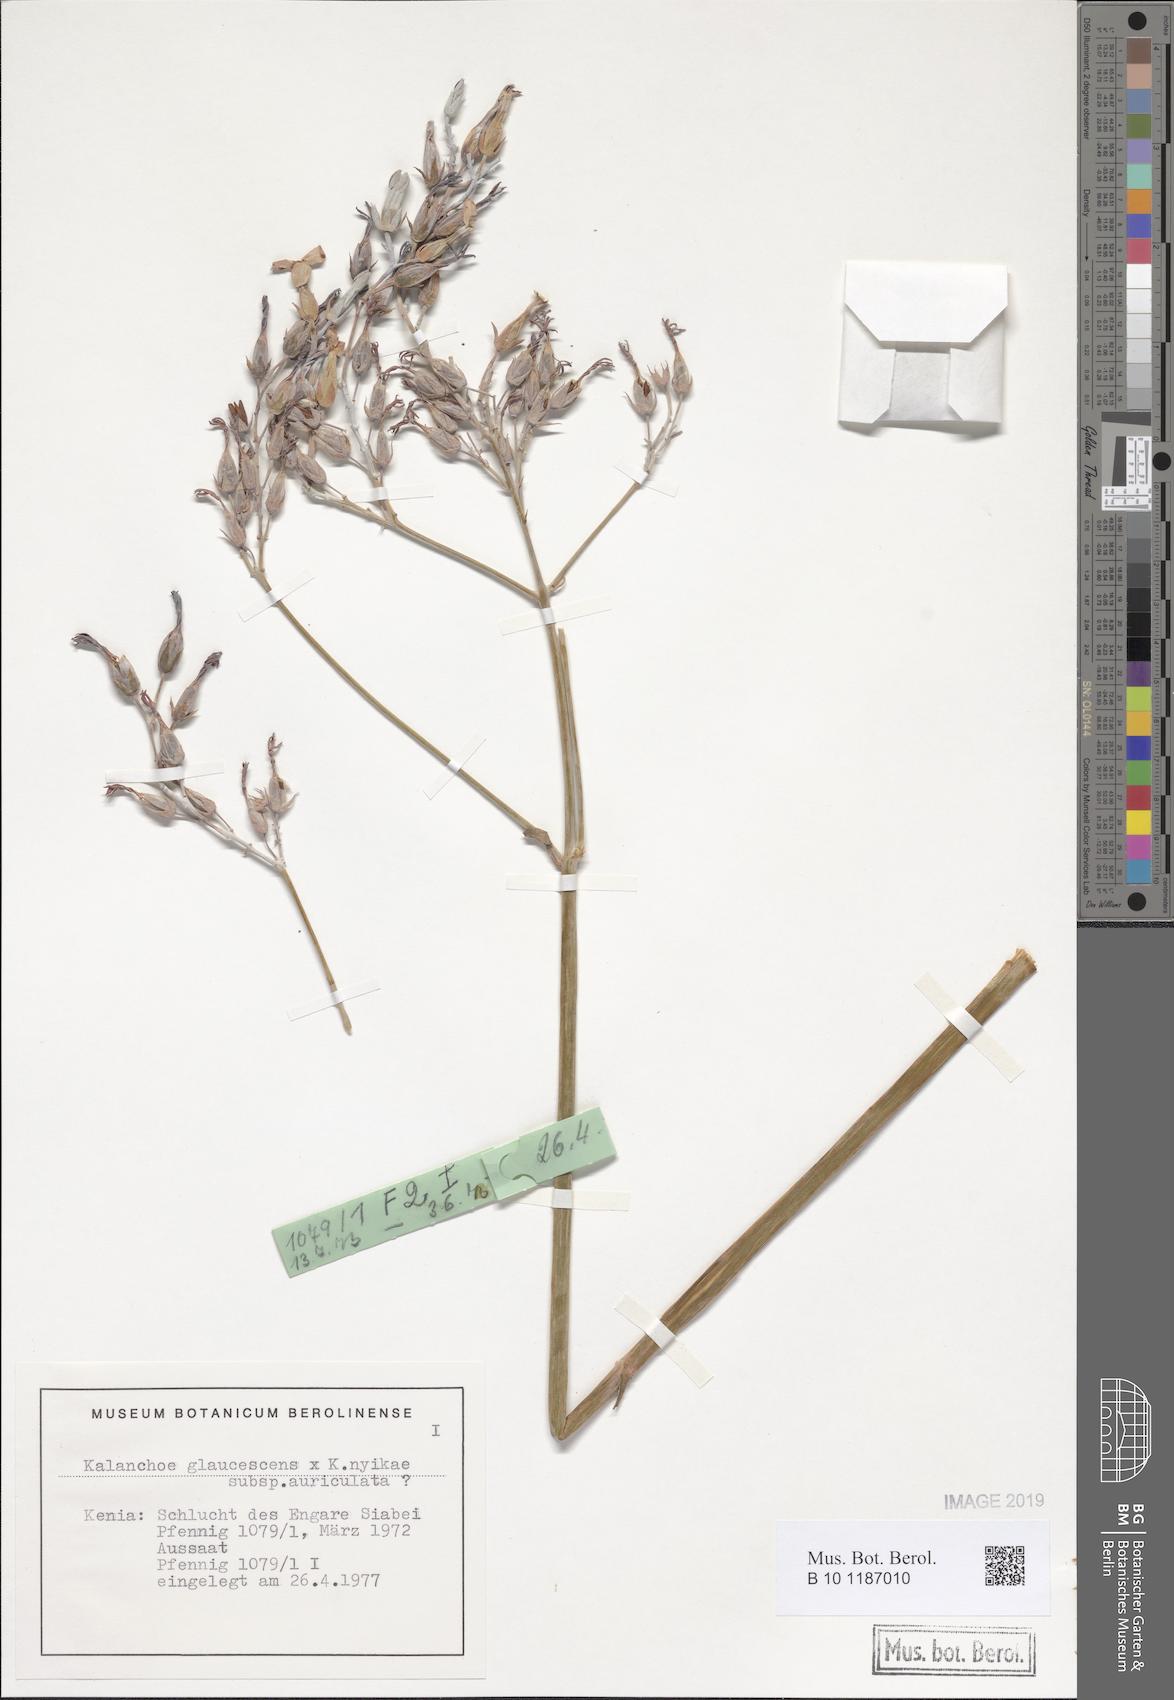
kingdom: Plantae
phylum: Tracheophyta
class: Magnoliopsida
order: Saxifragales
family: Crassulaceae
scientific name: Crassulaceae
